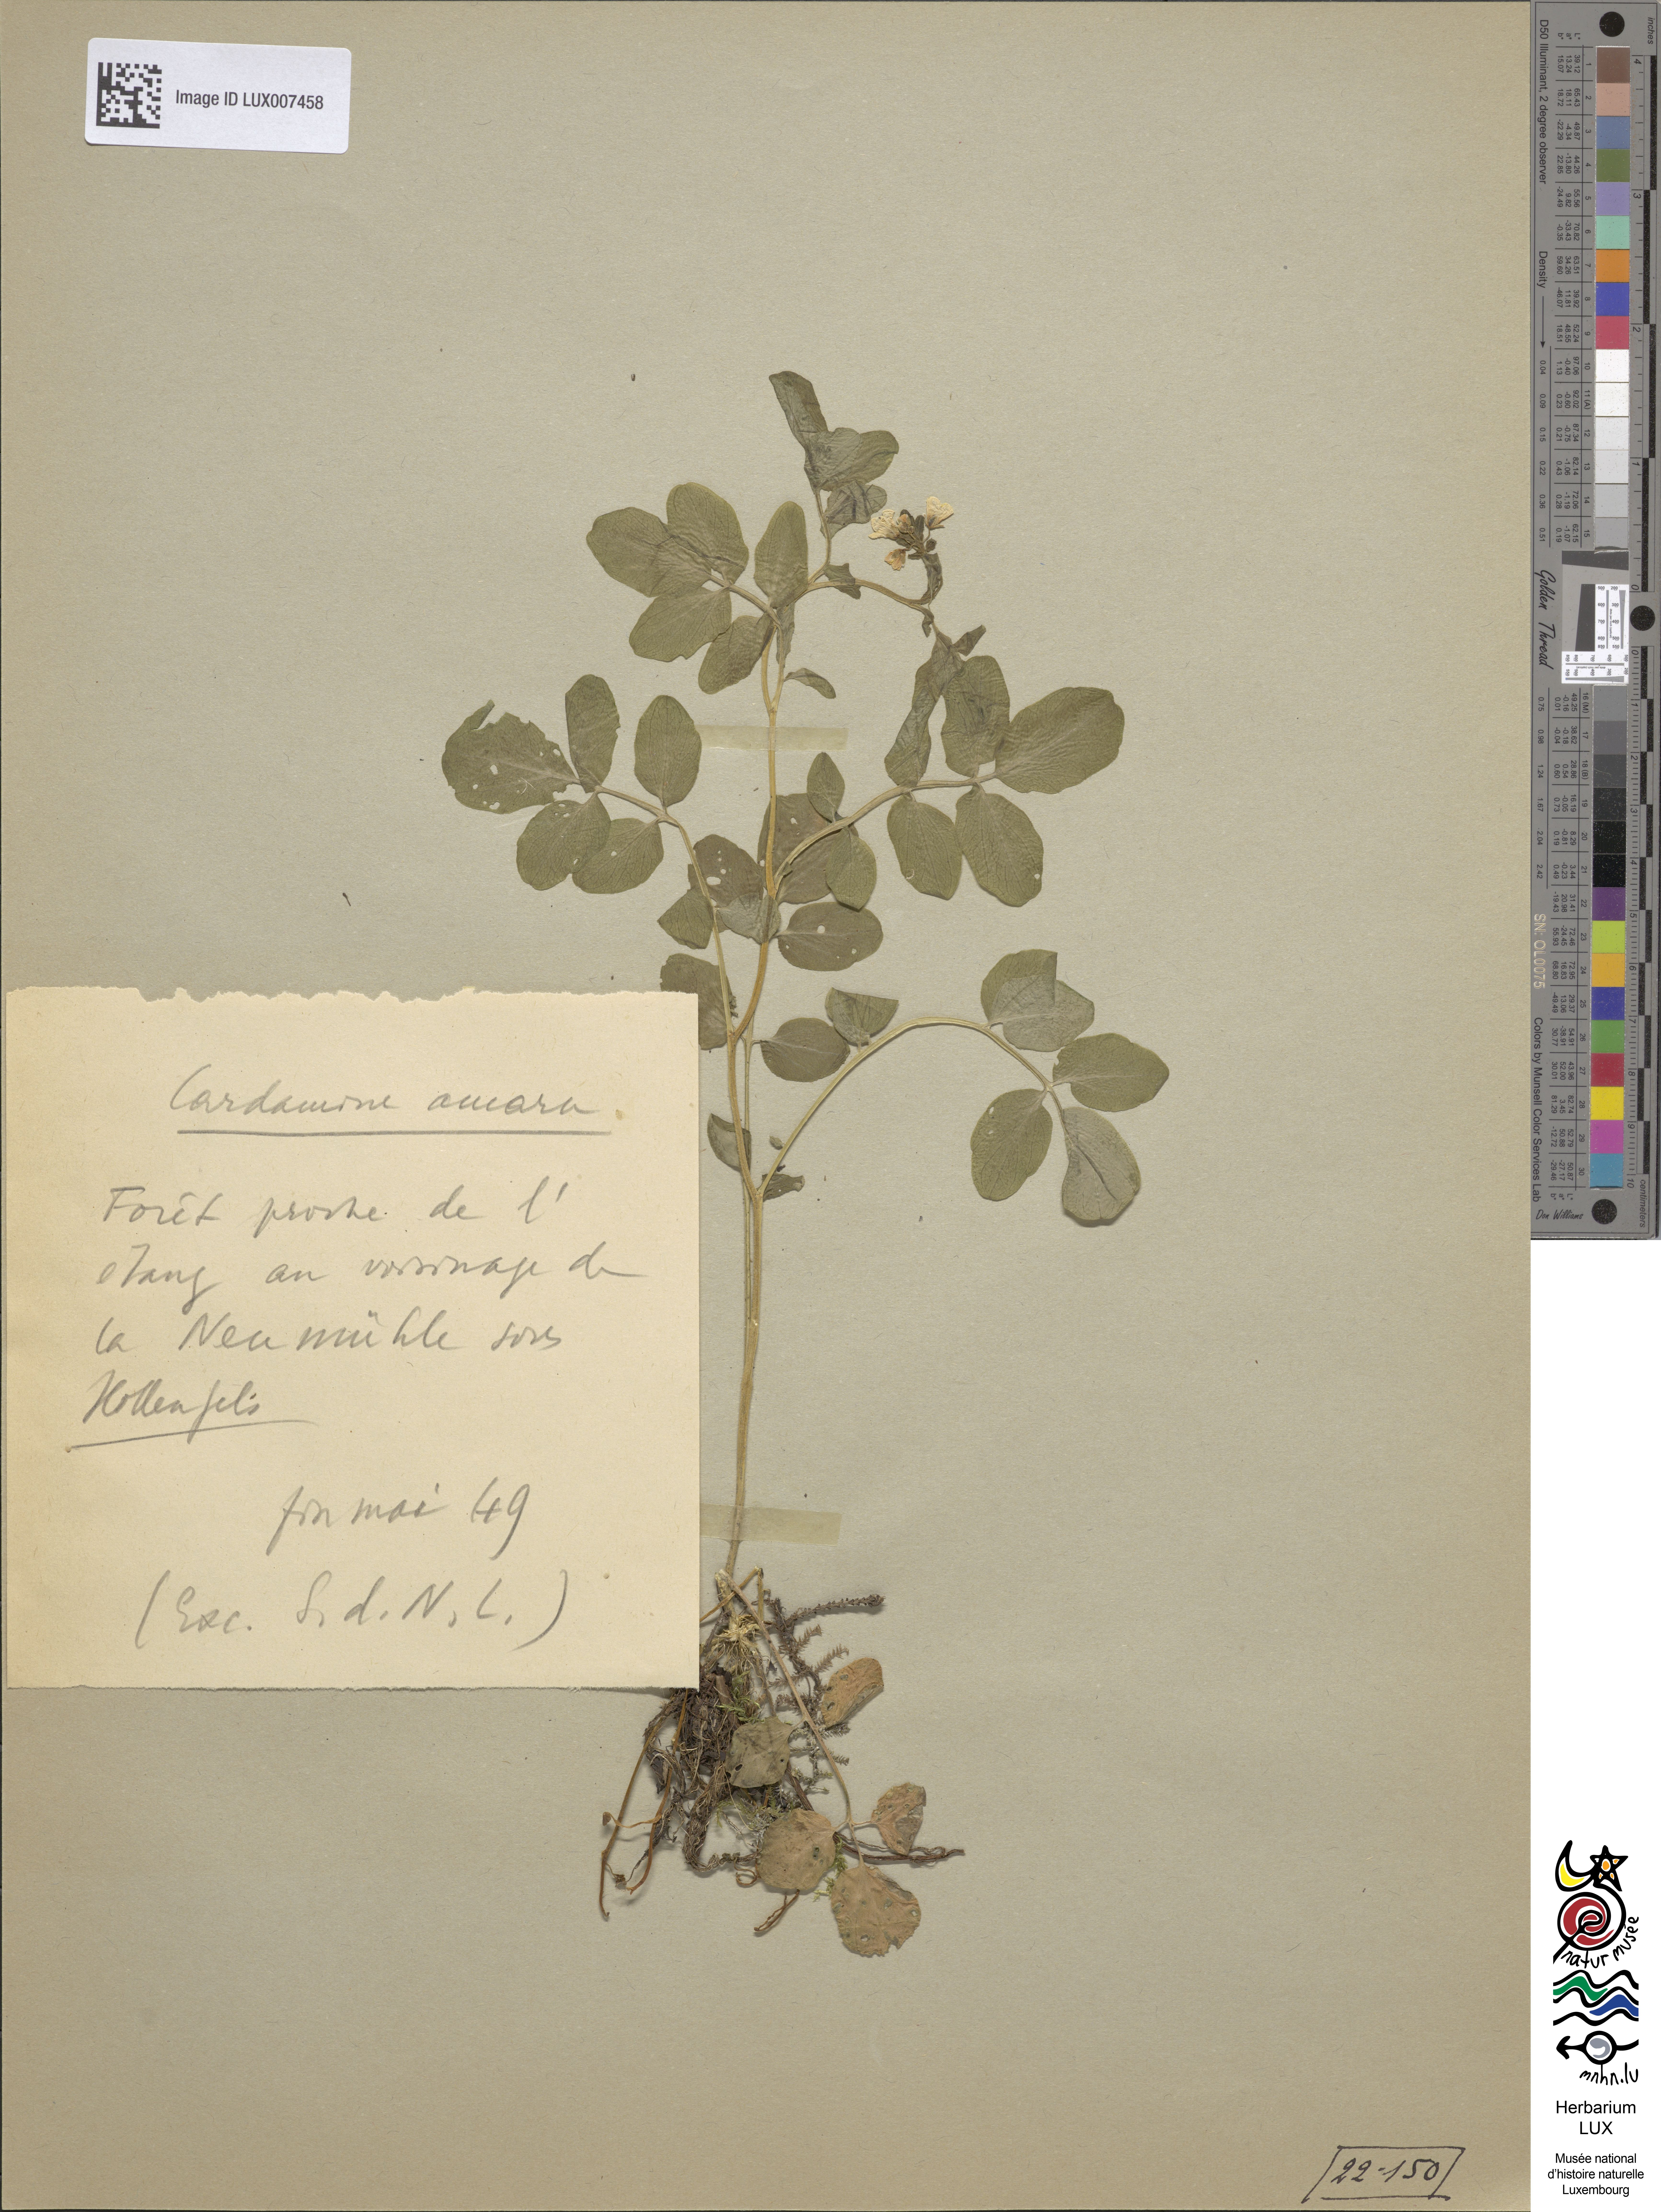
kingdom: Plantae
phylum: Tracheophyta
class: Magnoliopsida
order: Brassicales
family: Brassicaceae
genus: Cardamine
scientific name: Cardamine amara
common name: Large bitter-cress
